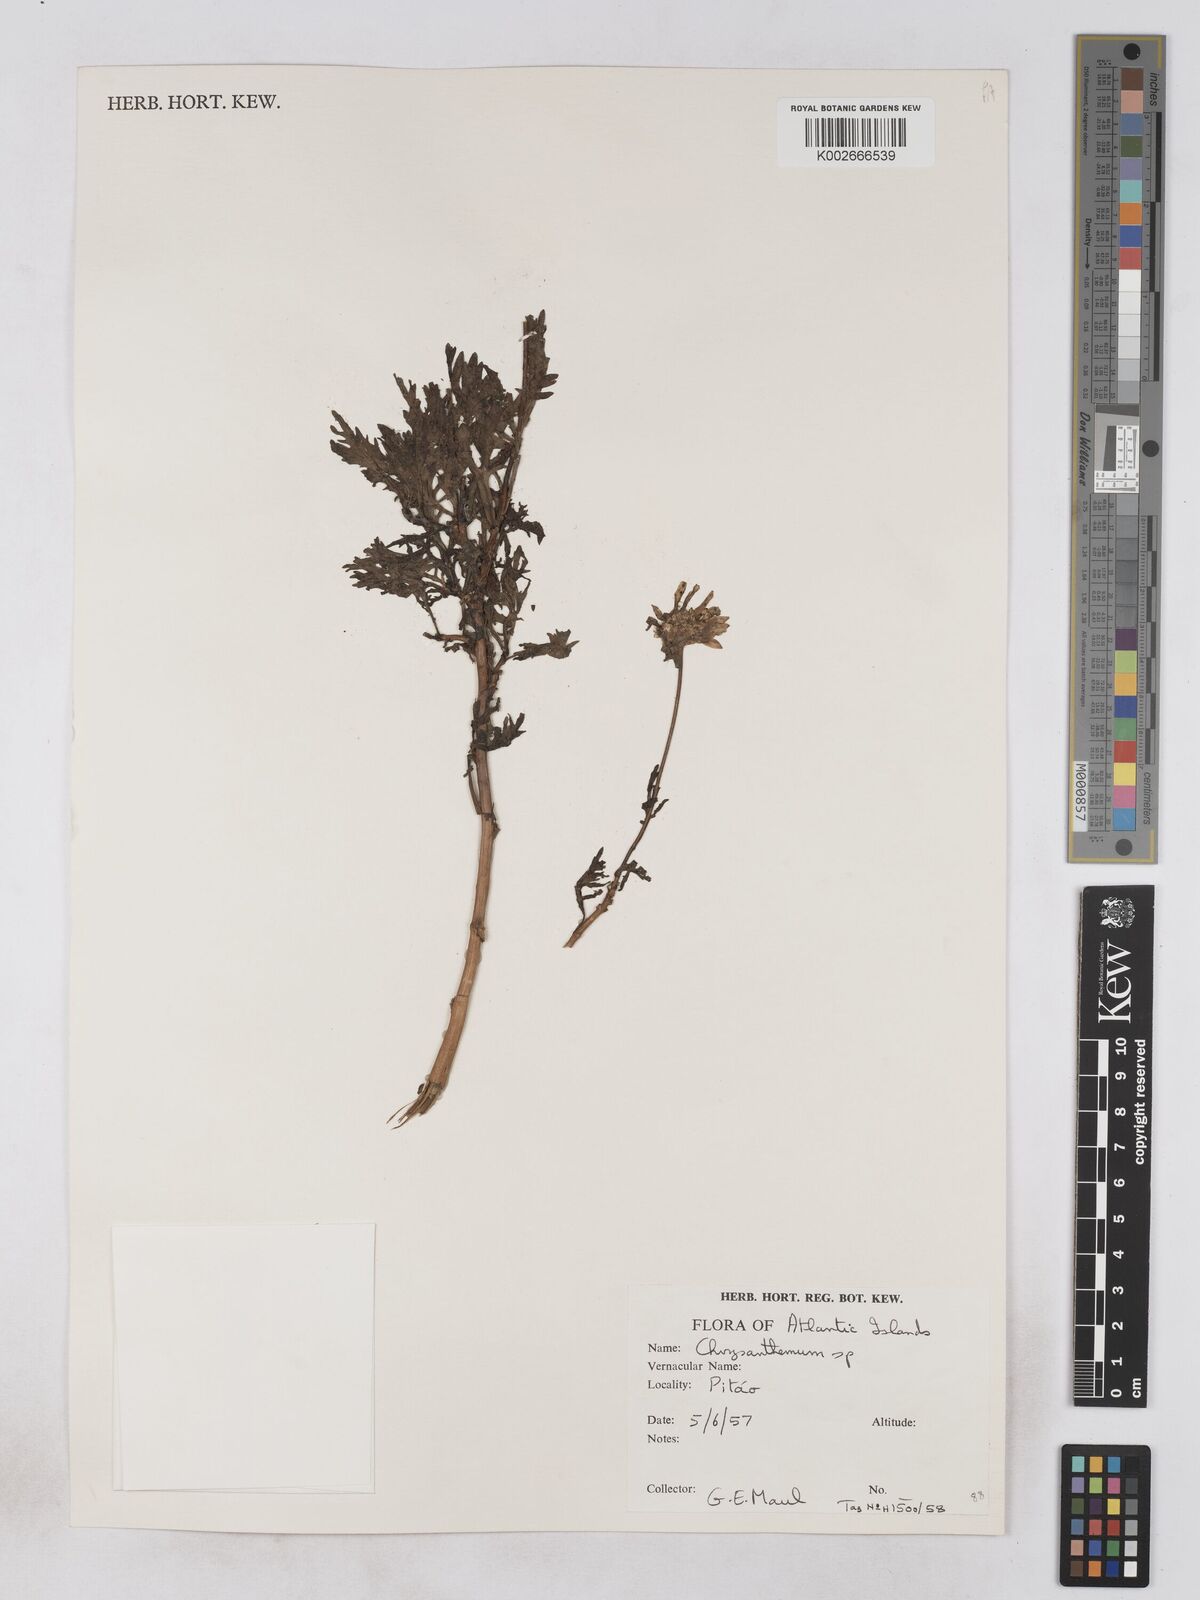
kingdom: Plantae
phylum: Tracheophyta
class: Magnoliopsida
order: Asterales
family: Asteraceae
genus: Argyranthemum
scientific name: Argyranthemum
